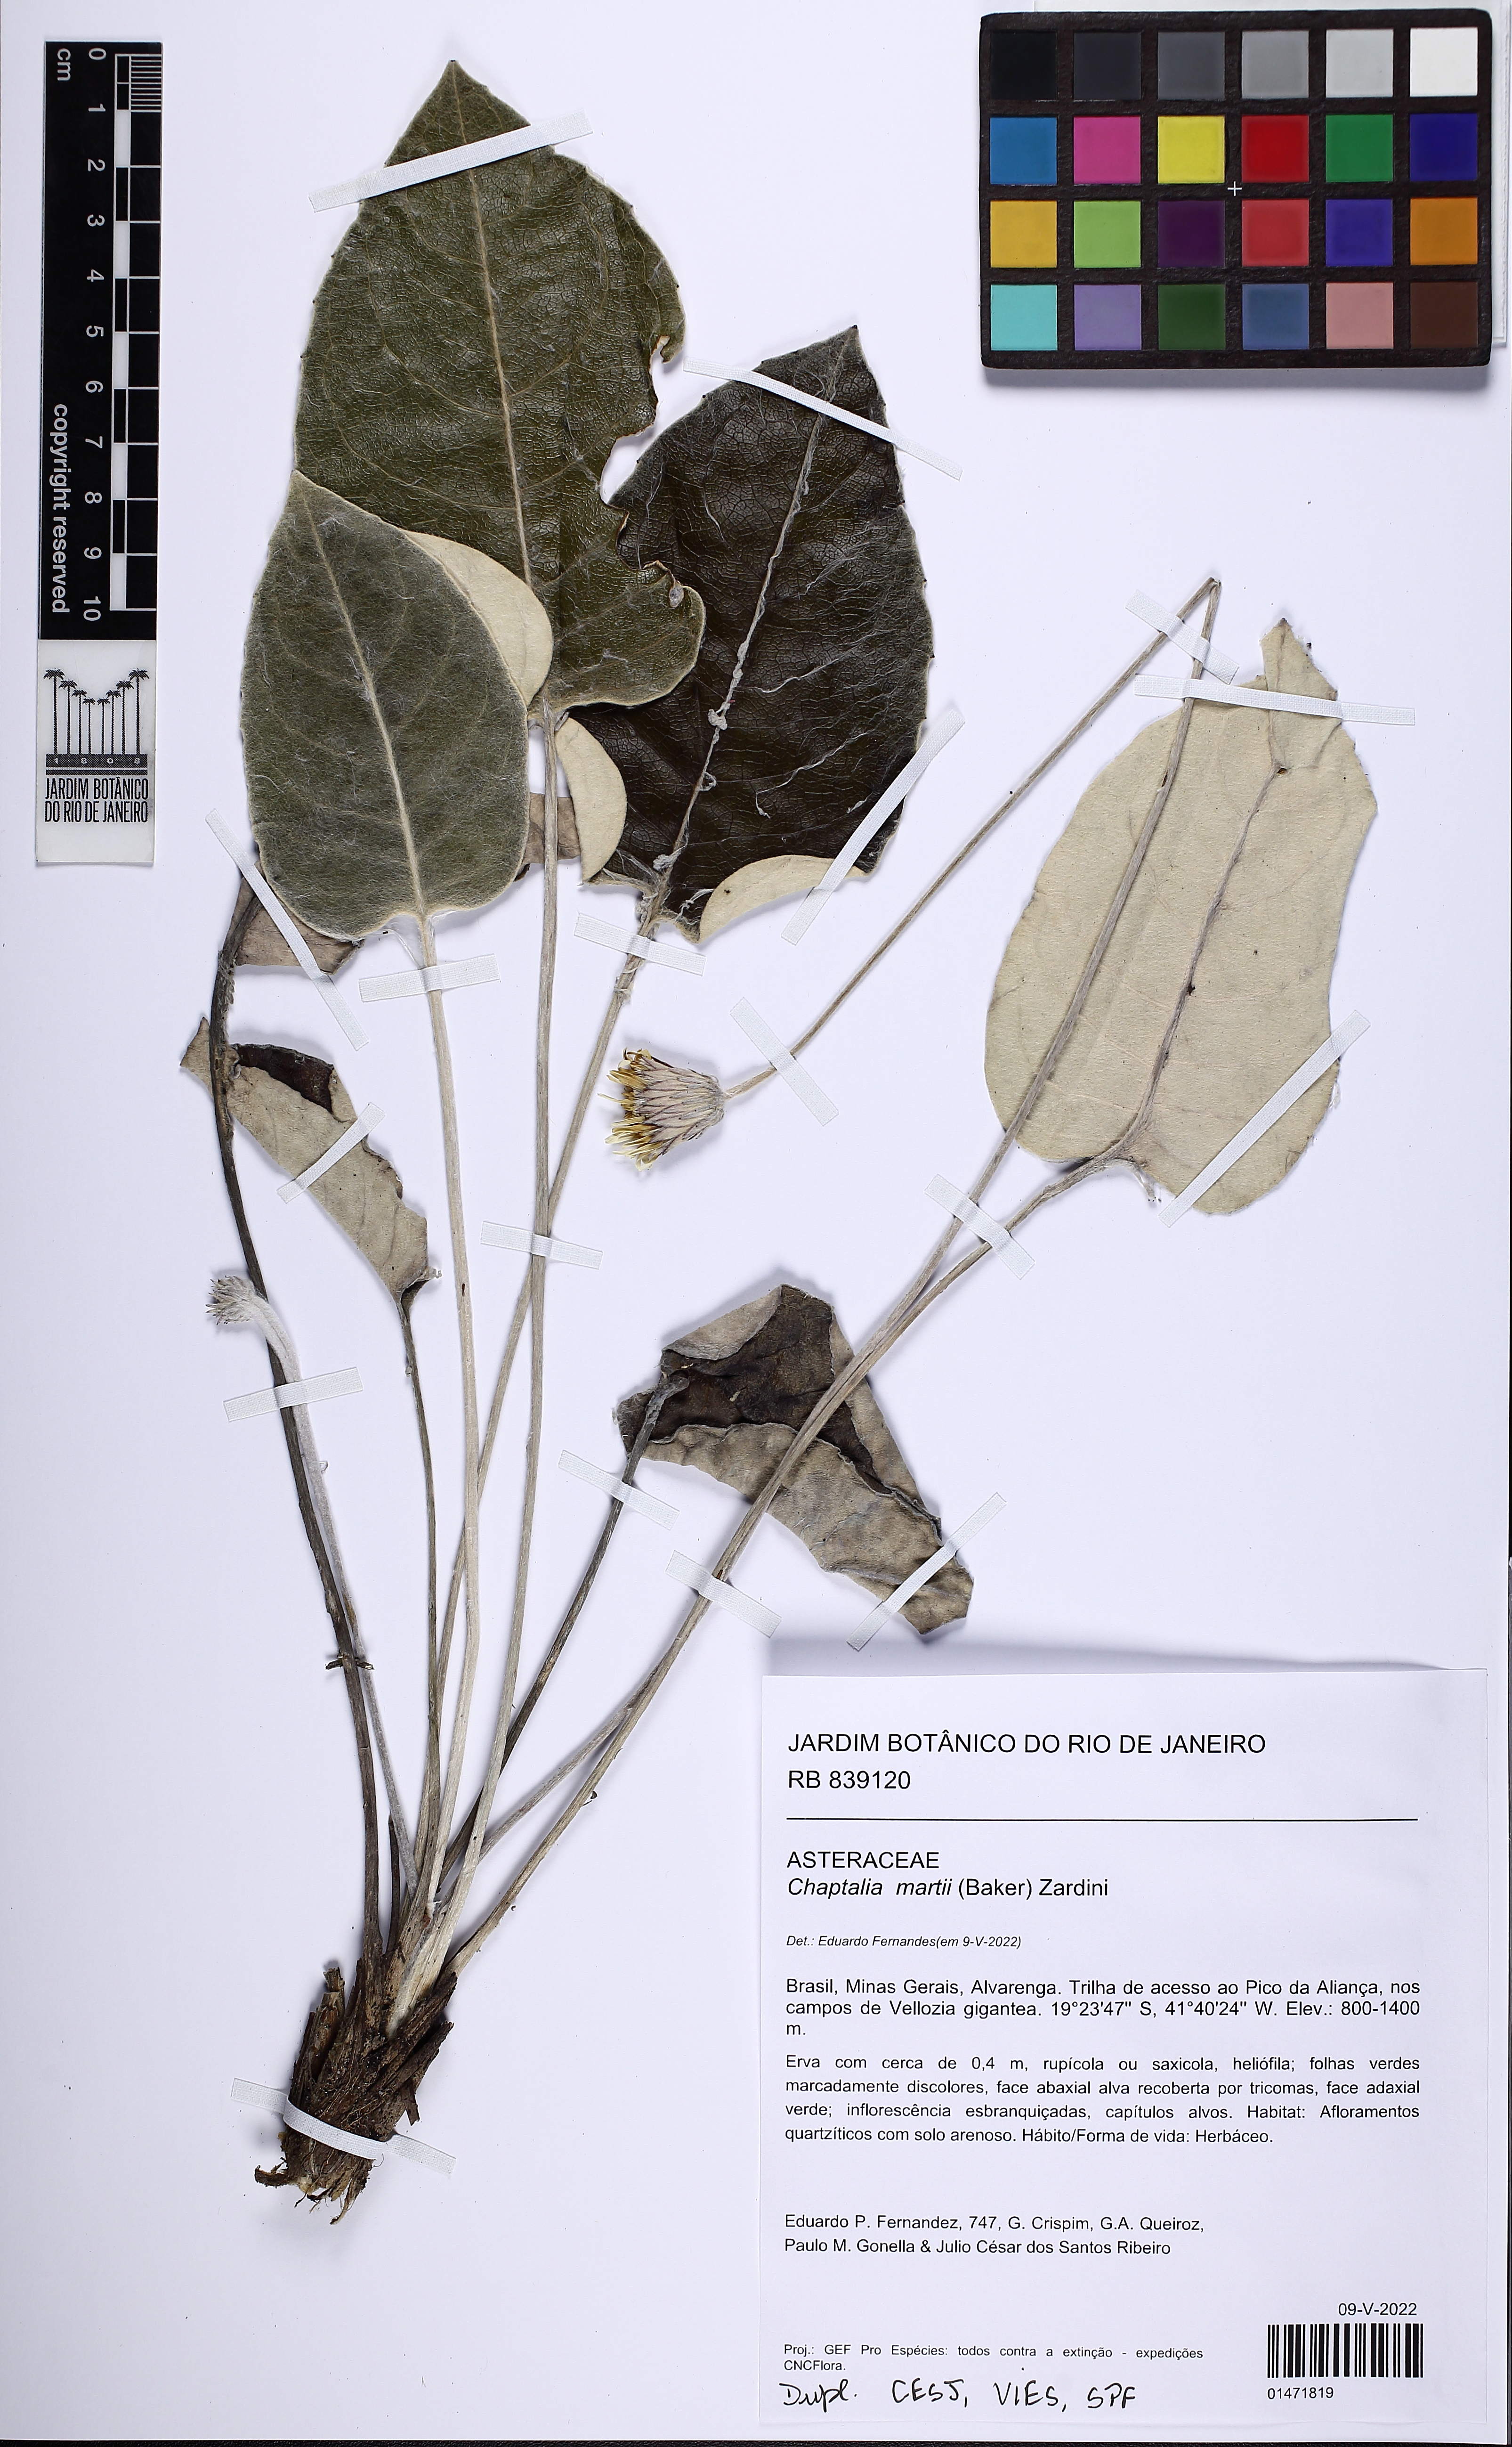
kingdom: Plantae
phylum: Tracheophyta
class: Magnoliopsida
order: Asterales
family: Asteraceae
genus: Chaptalia
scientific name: Chaptalia martii
